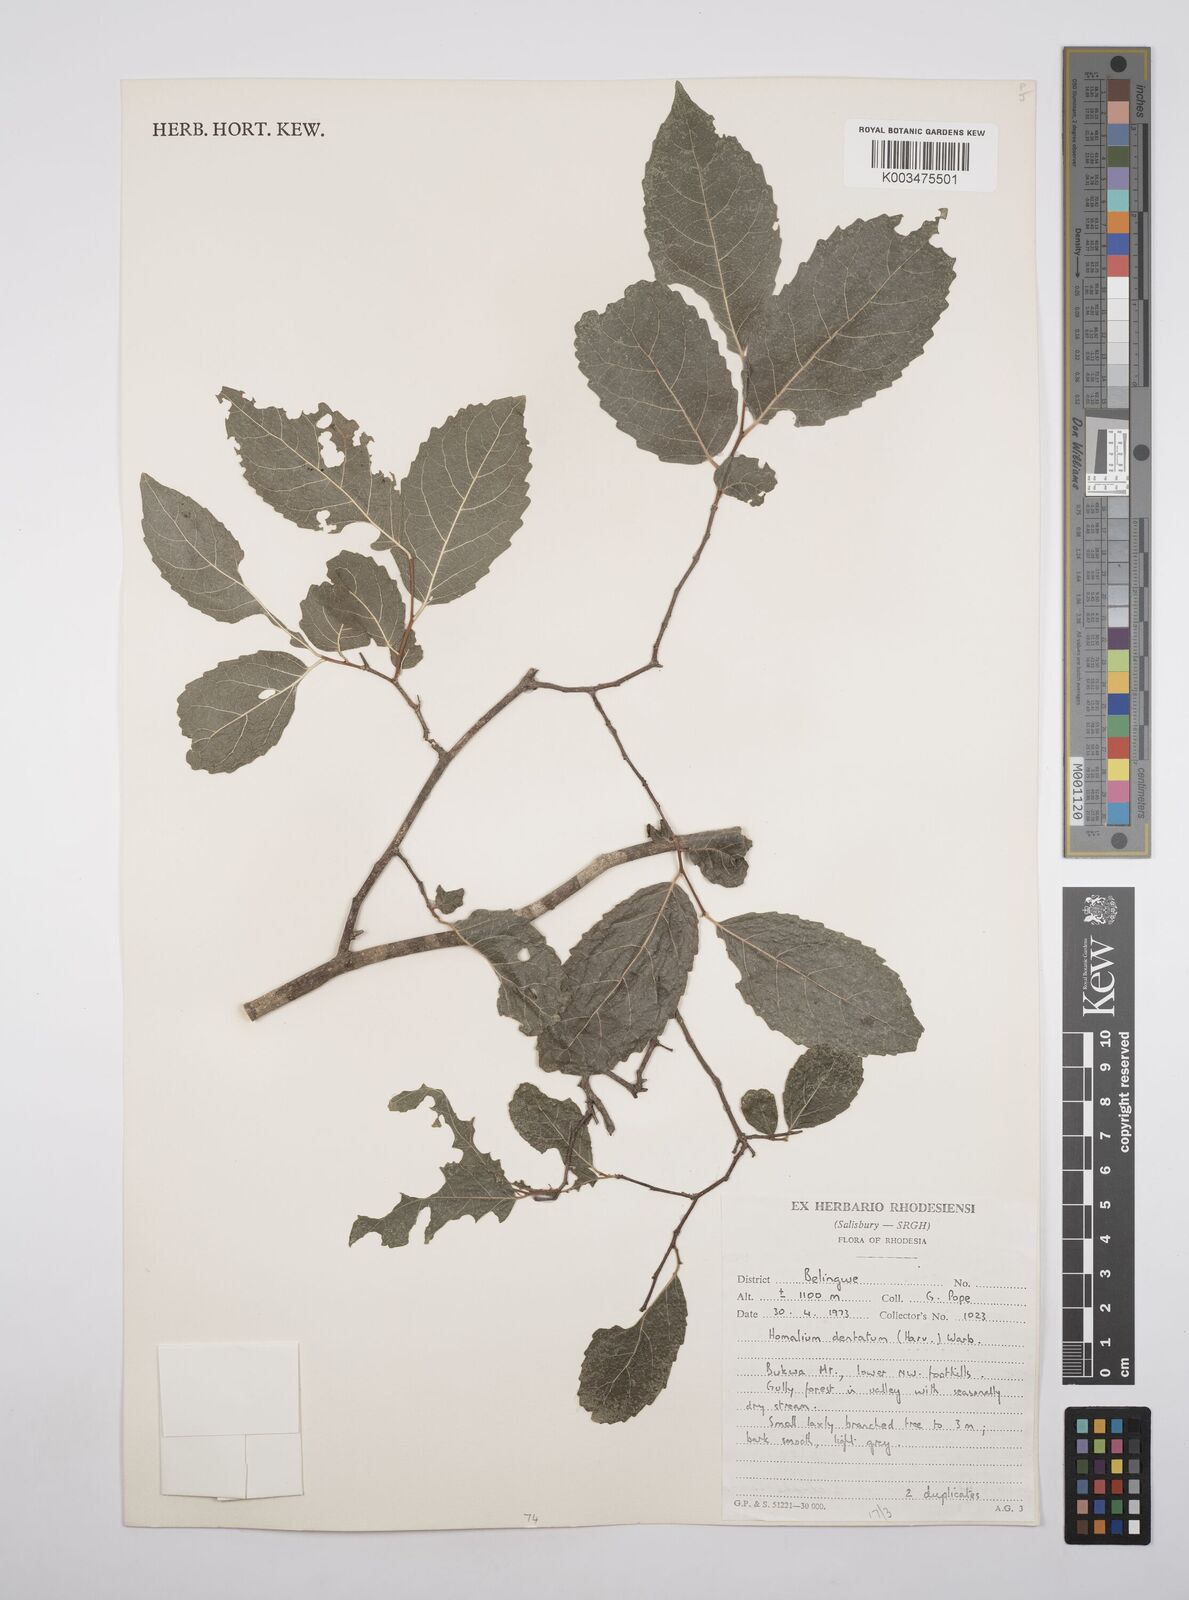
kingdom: Plantae
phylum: Tracheophyta
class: Magnoliopsida
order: Malpighiales
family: Salicaceae
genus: Homalium
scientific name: Homalium dentatum
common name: Brown ironwood
